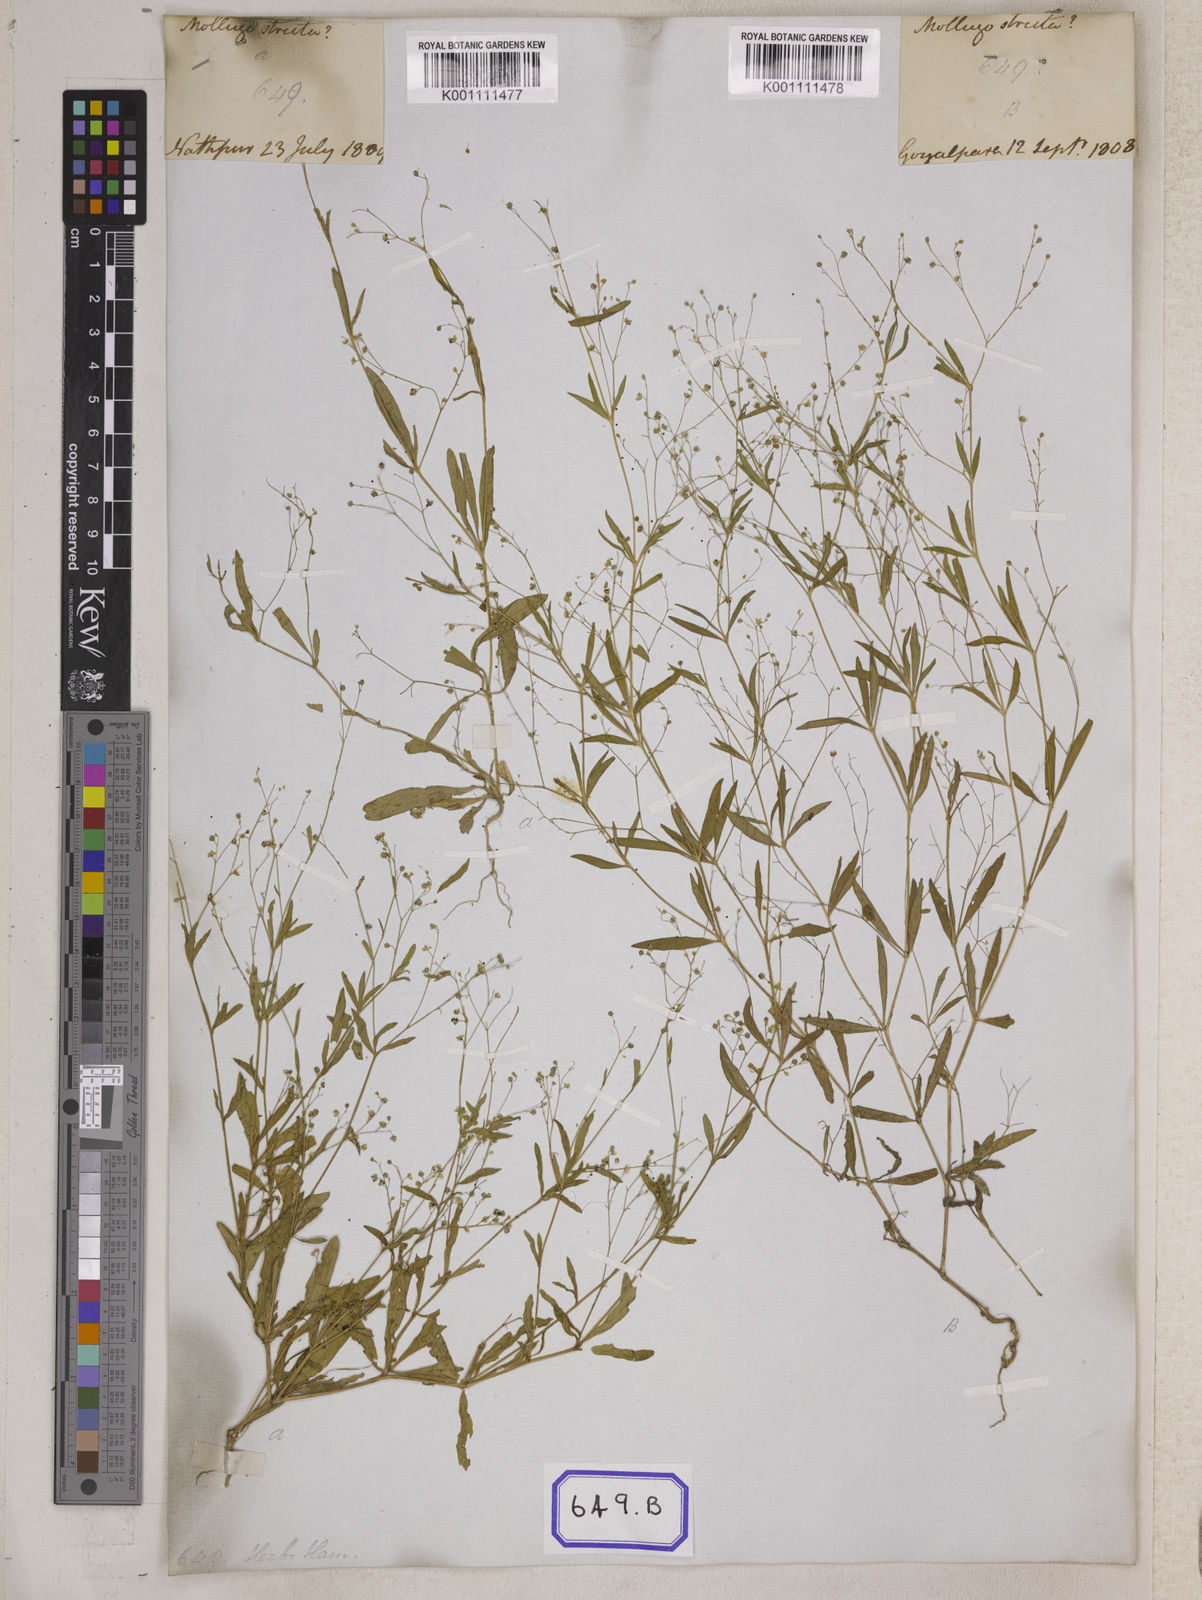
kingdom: Plantae
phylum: Tracheophyta
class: Magnoliopsida
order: Caryophyllales
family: Molluginaceae
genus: Trigastrotheca
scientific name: Trigastrotheca stricta
